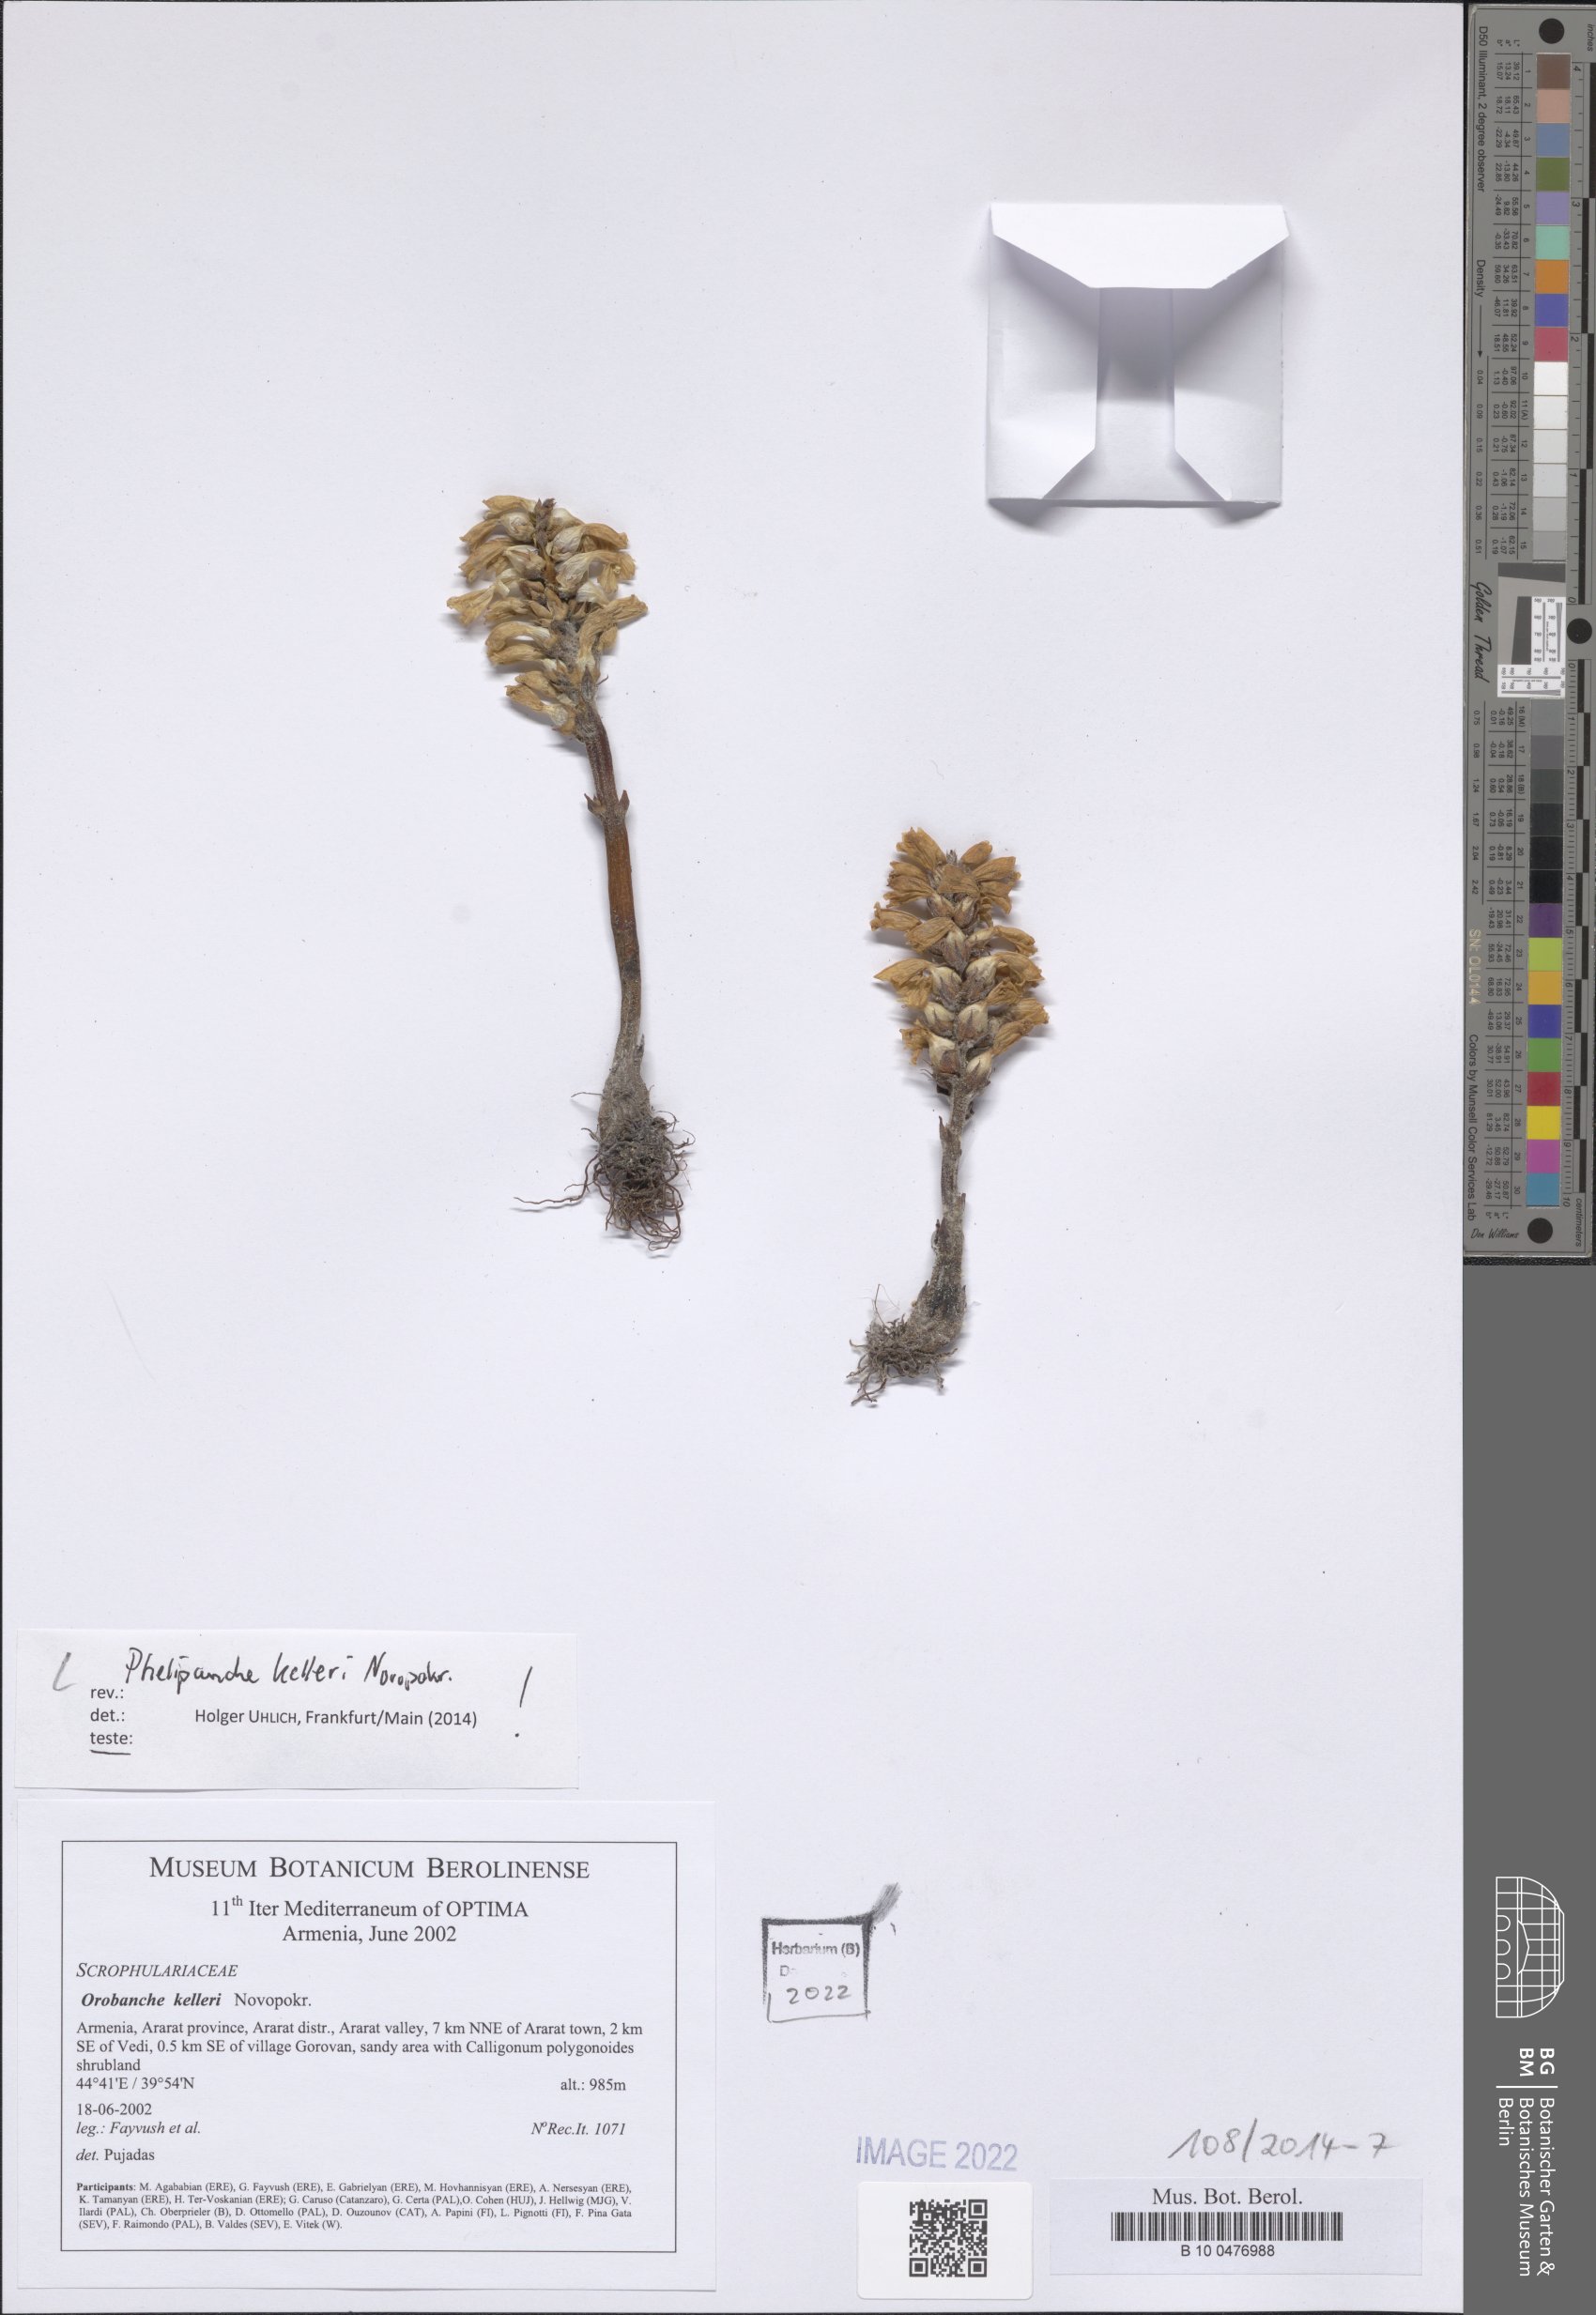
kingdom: Plantae
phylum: Tracheophyta
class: Magnoliopsida
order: Lamiales
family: Orobanchaceae
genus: Phelipanche
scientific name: Phelipanche kelleri
